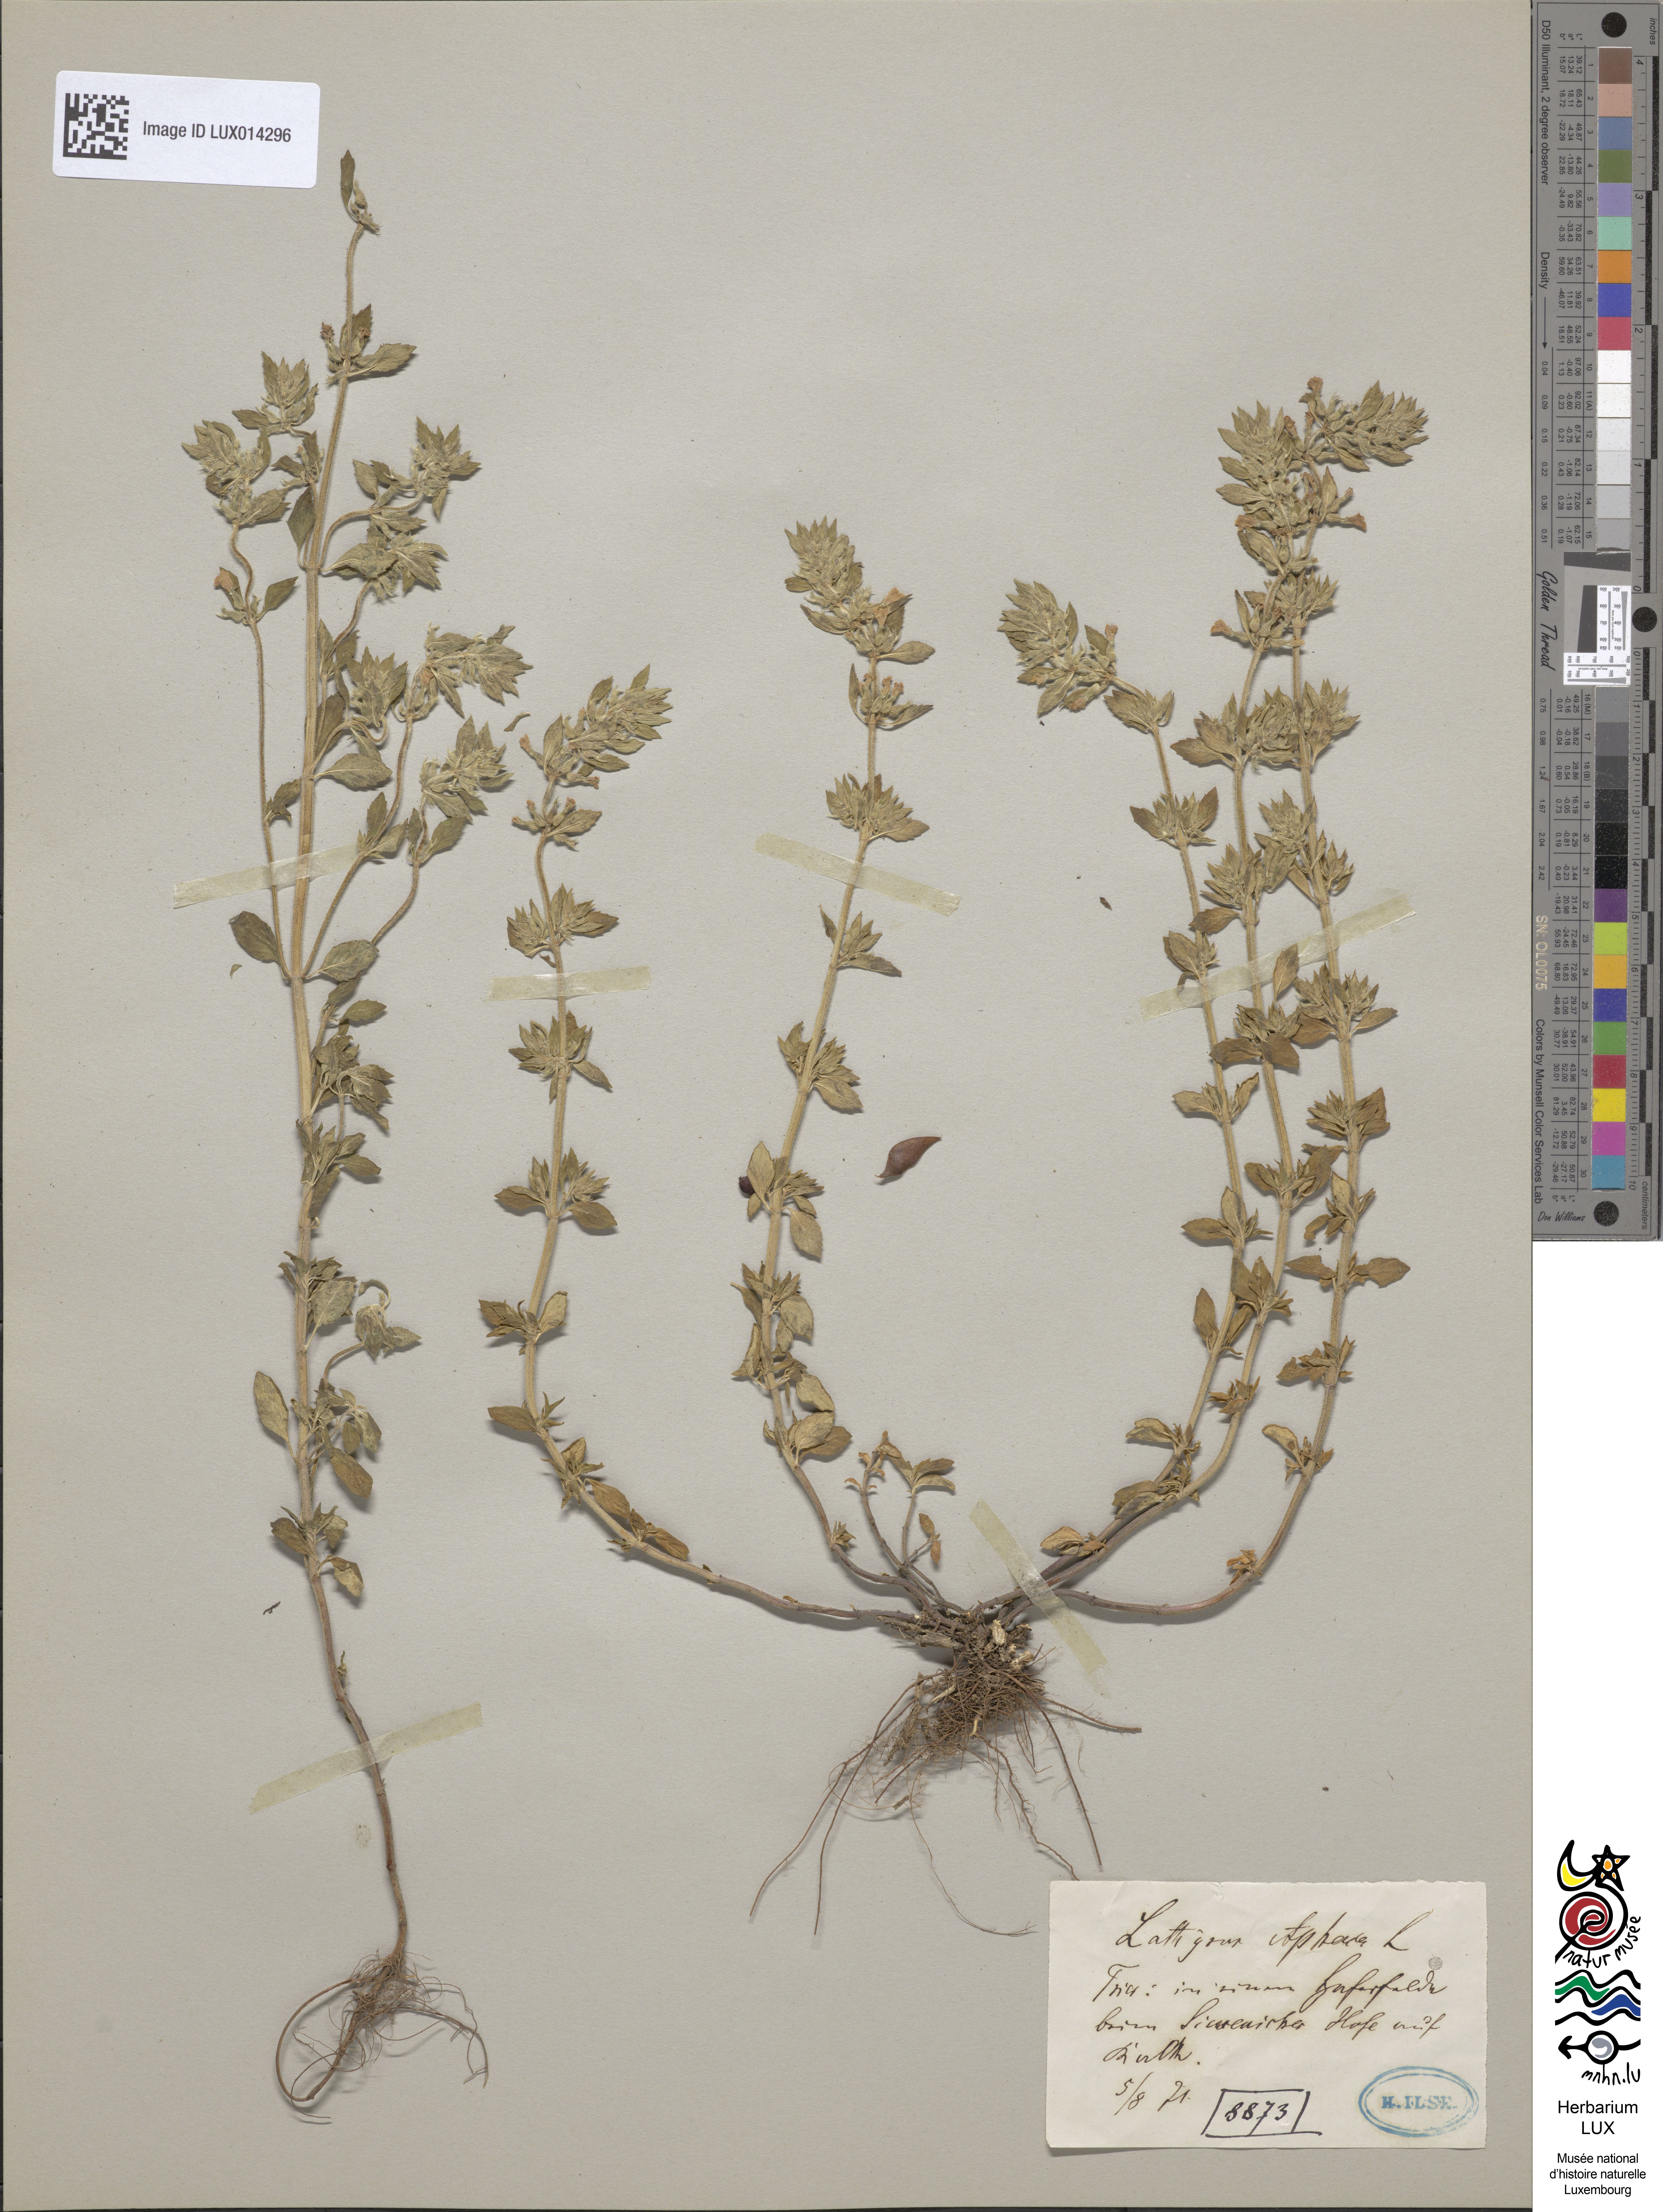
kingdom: Plantae
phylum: Tracheophyta
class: Magnoliopsida
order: Fabales
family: Fabaceae
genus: Lathyrus
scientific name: Lathyrus aphaca
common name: Yellow vetchling
